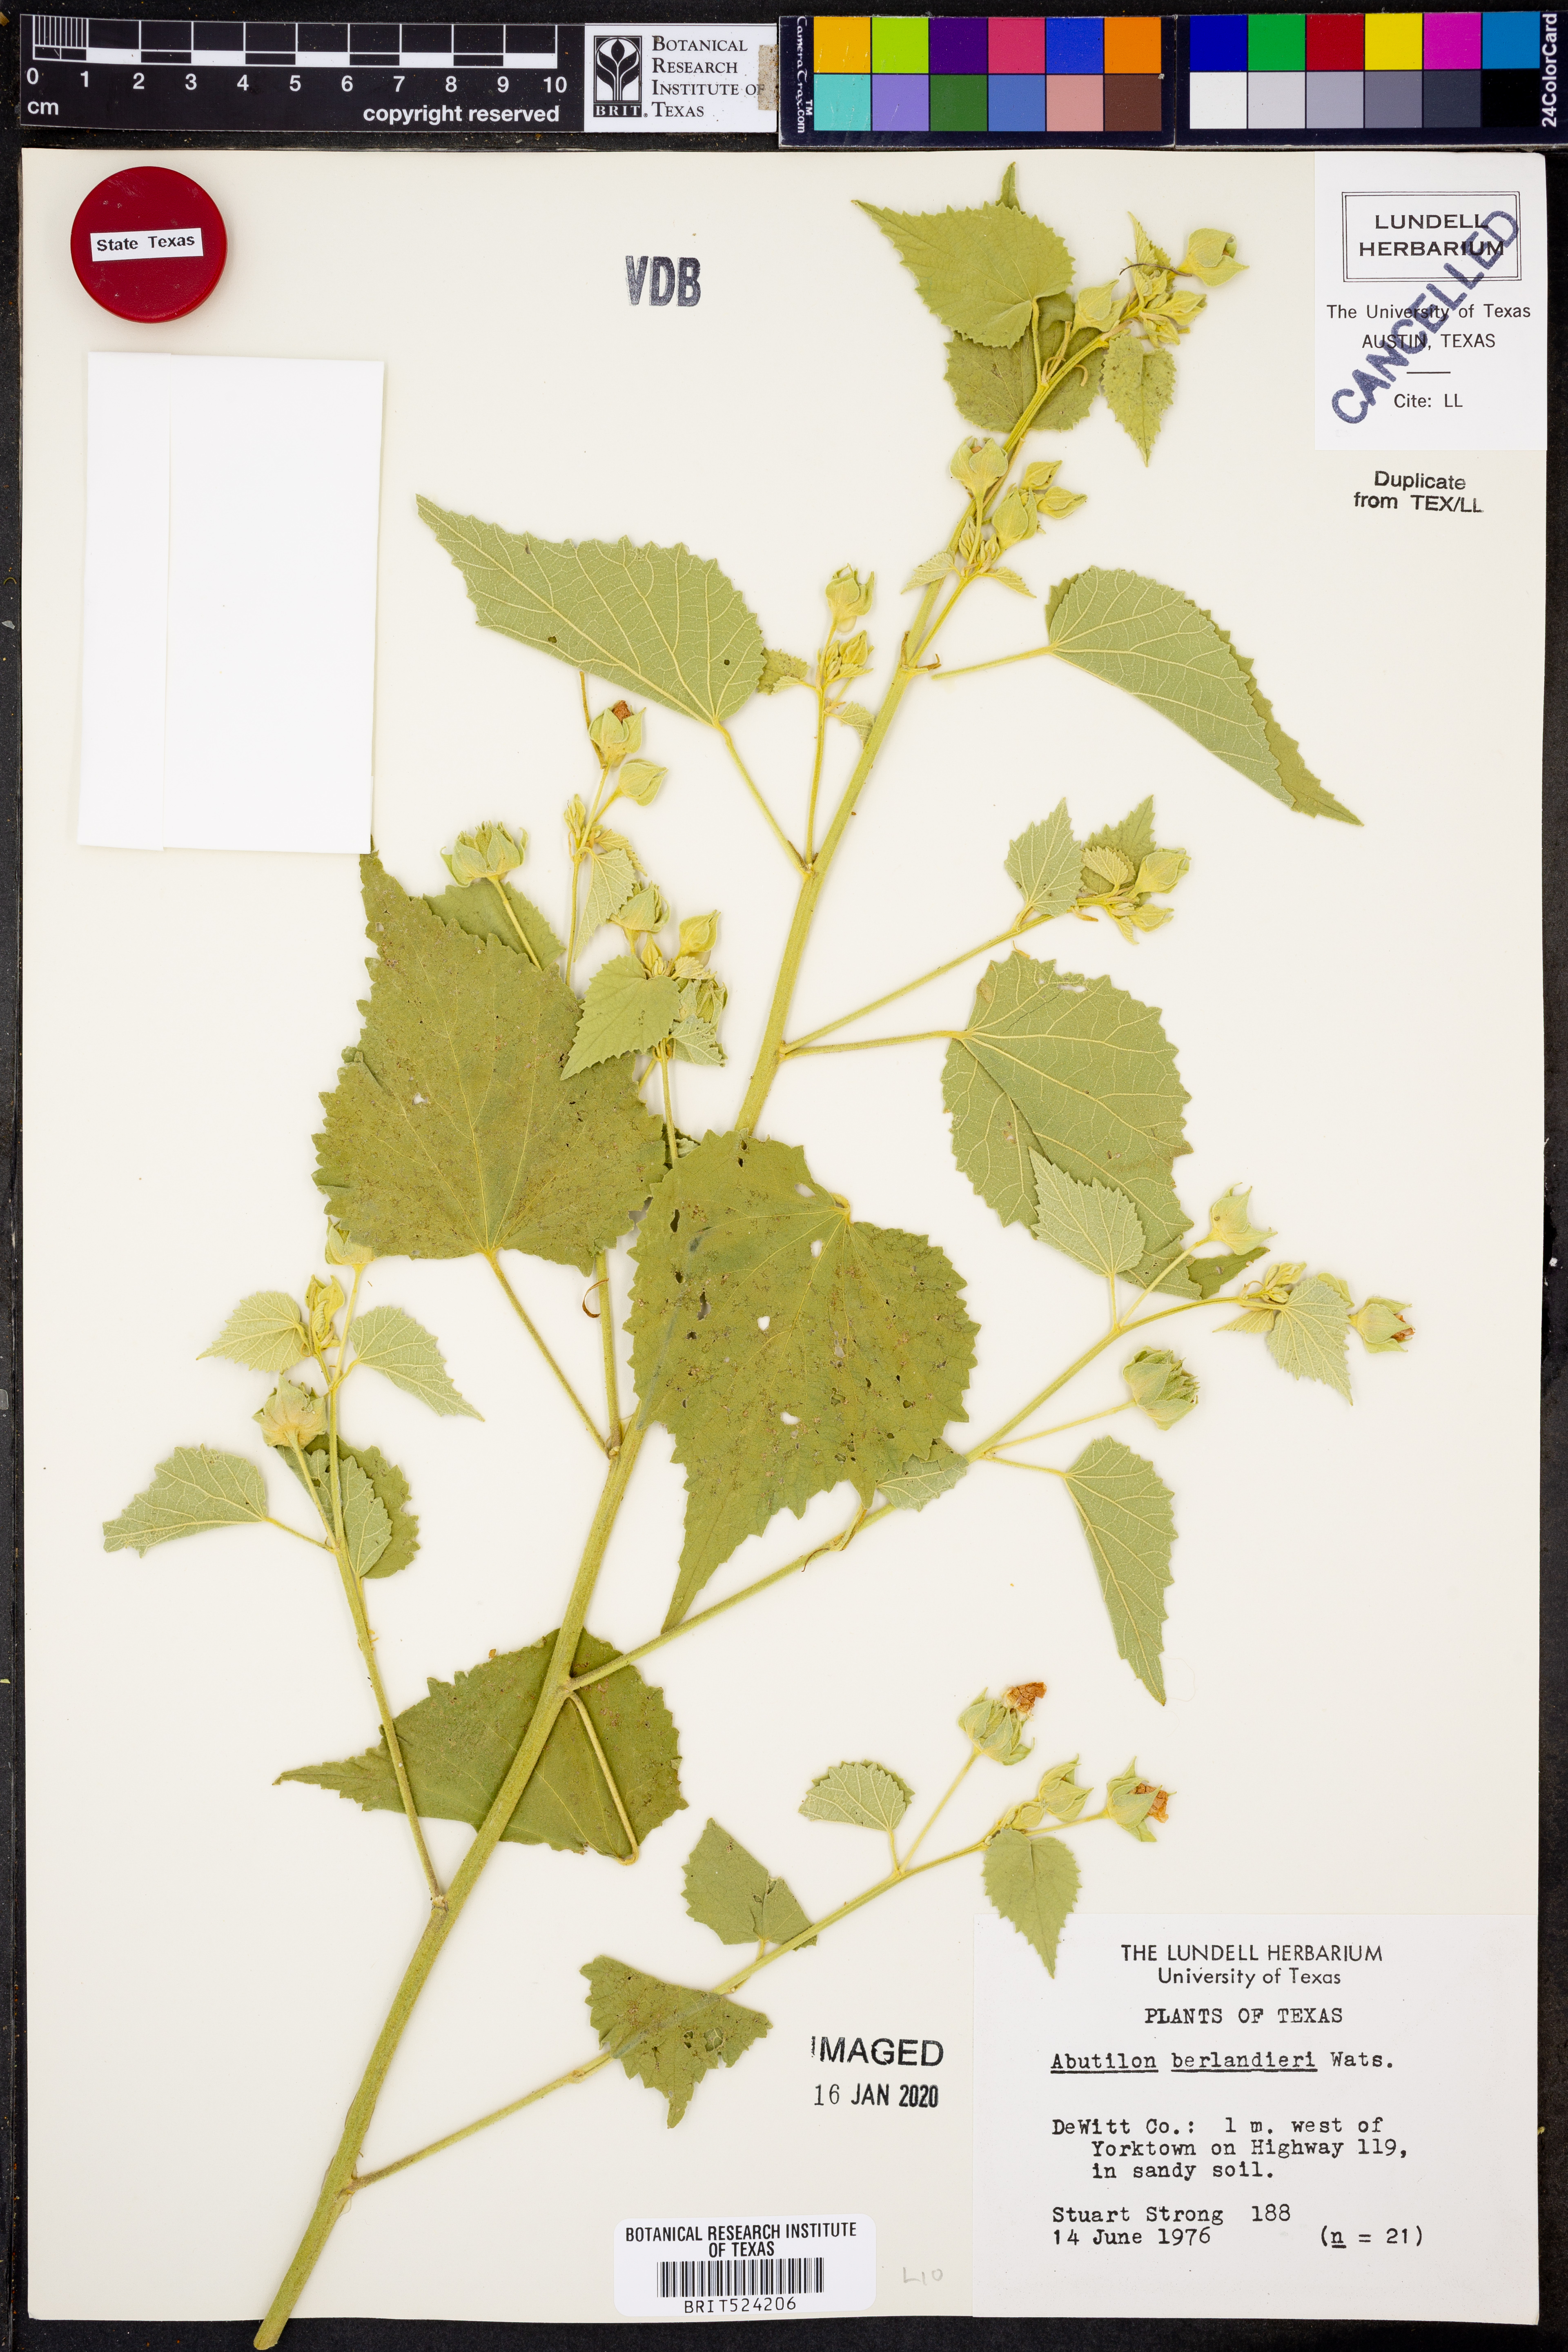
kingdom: Plantae
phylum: Tracheophyta
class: Magnoliopsida
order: Malvales
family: Malvaceae
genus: Abutilon
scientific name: Abutilon berlandieri
